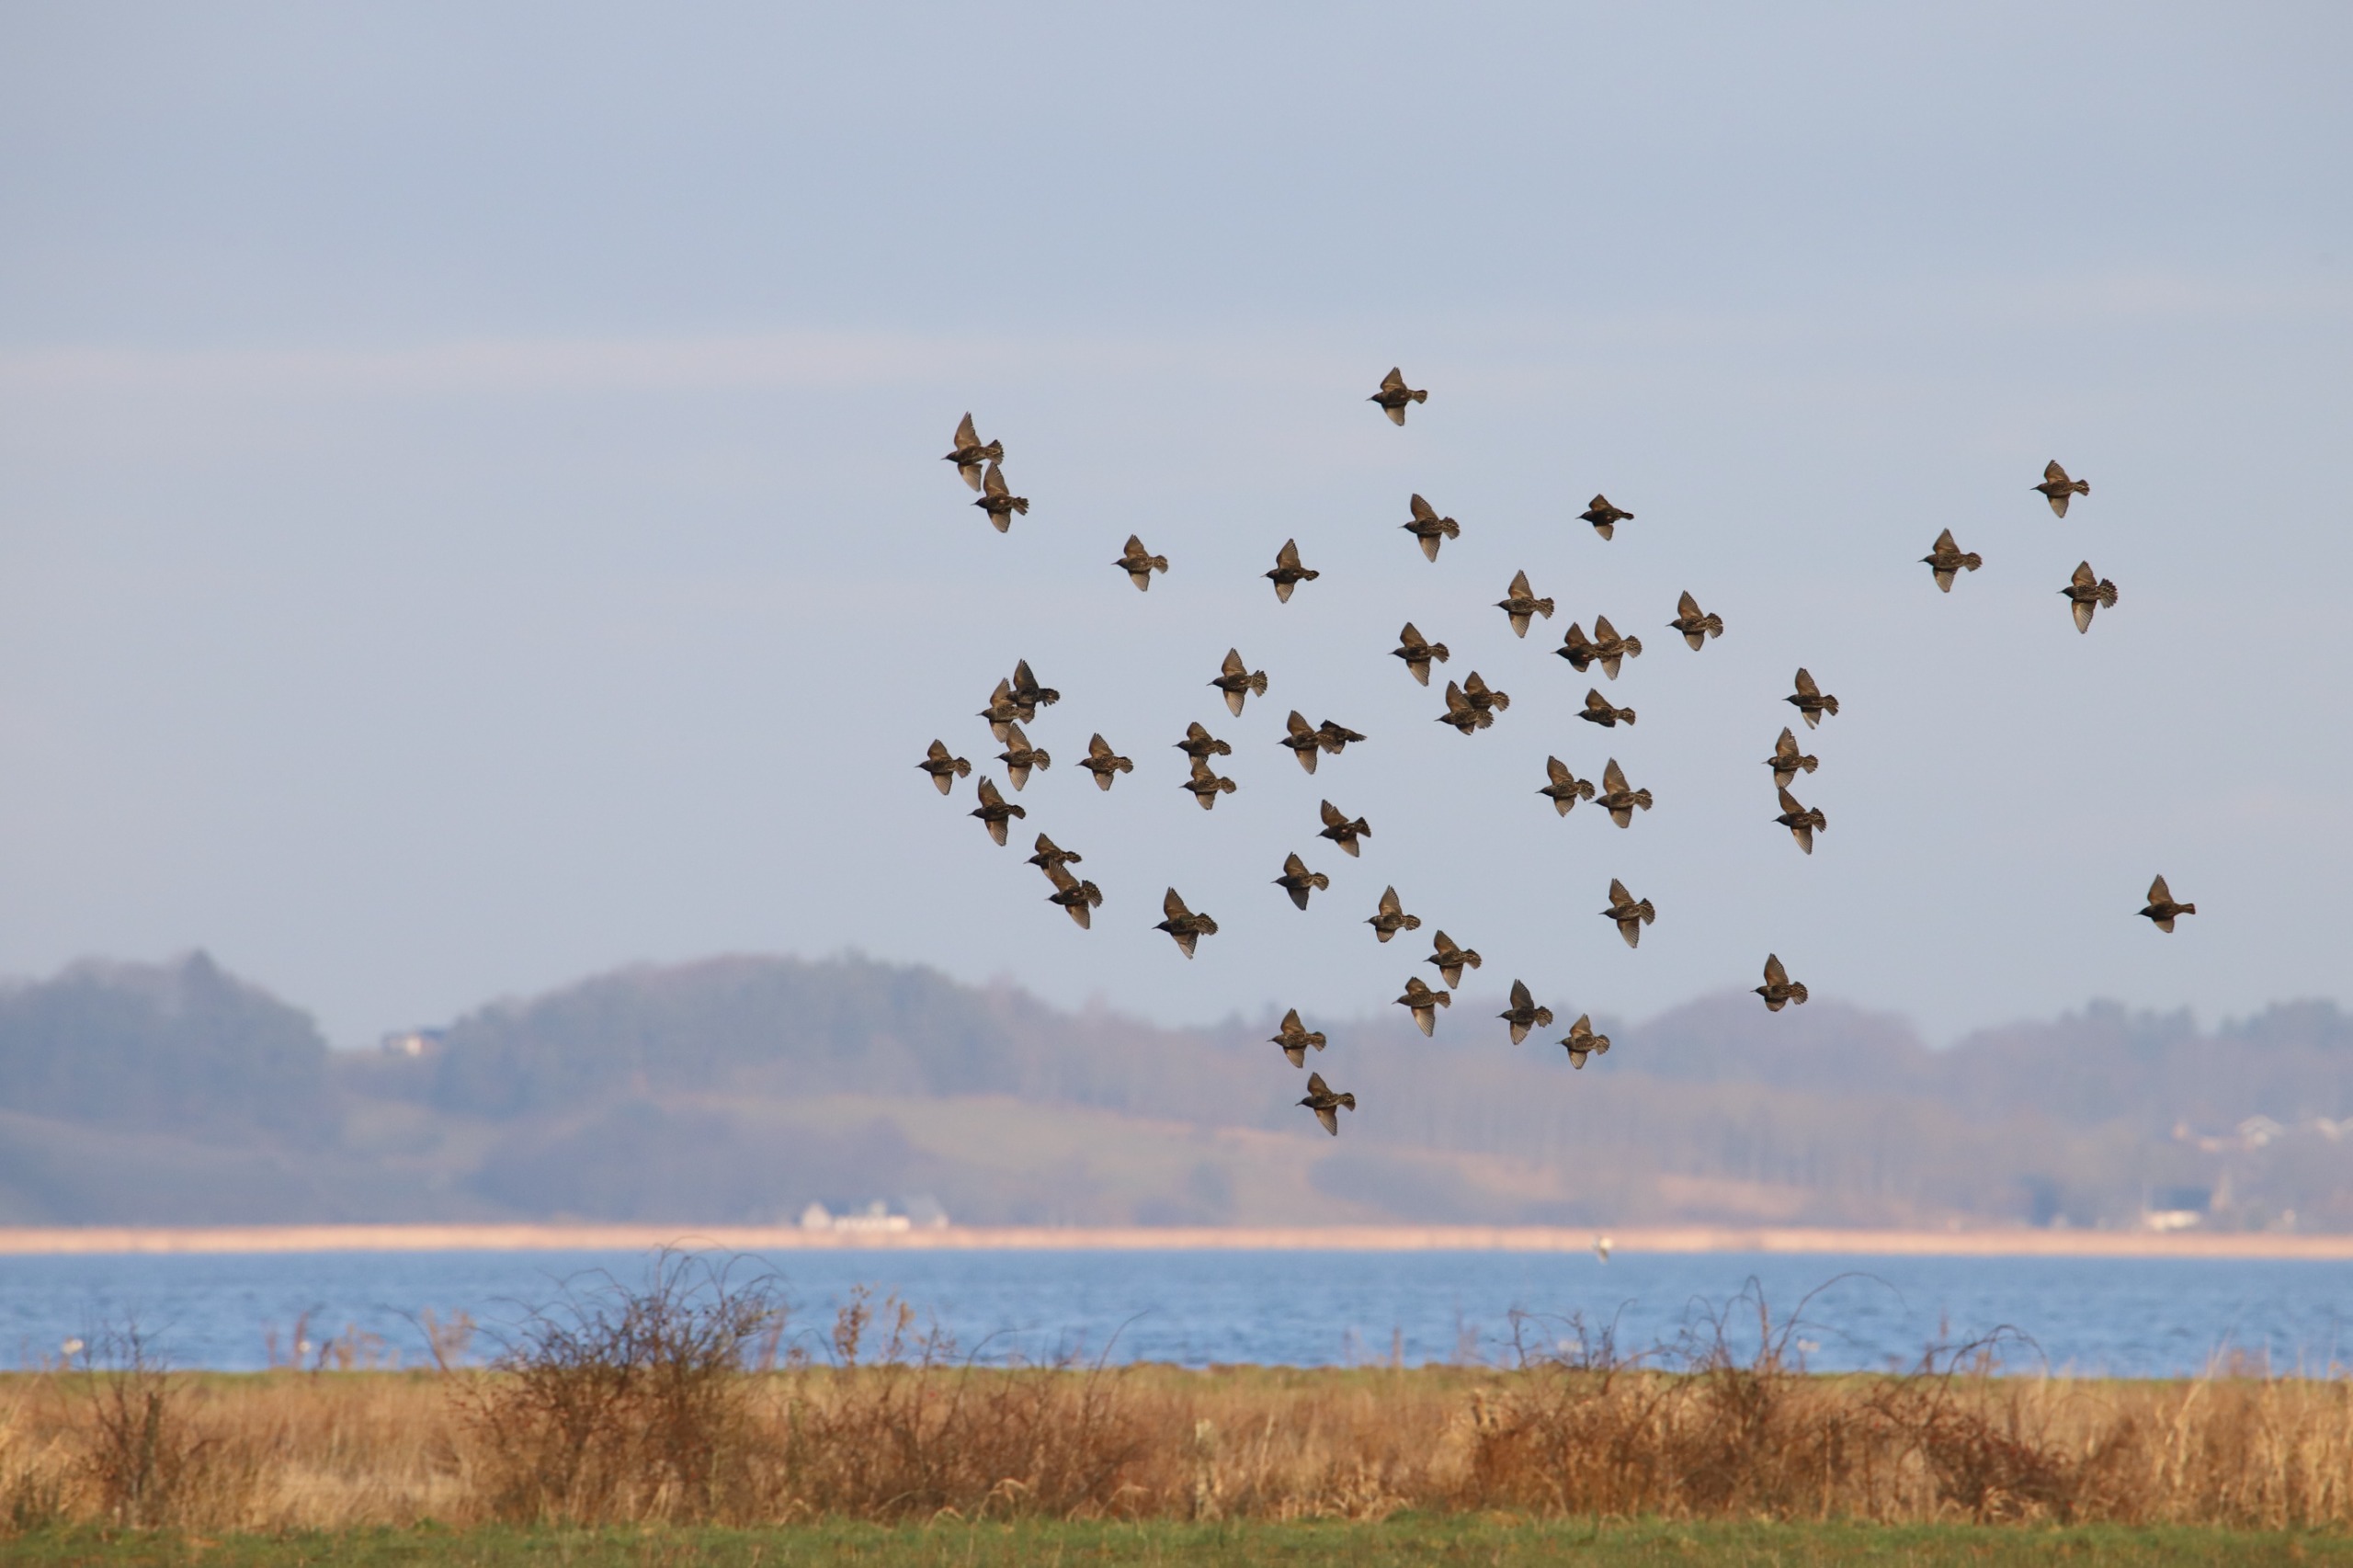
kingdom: Animalia
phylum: Chordata
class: Aves
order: Passeriformes
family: Sturnidae
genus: Sturnus
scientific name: Sturnus vulgaris
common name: Stær
